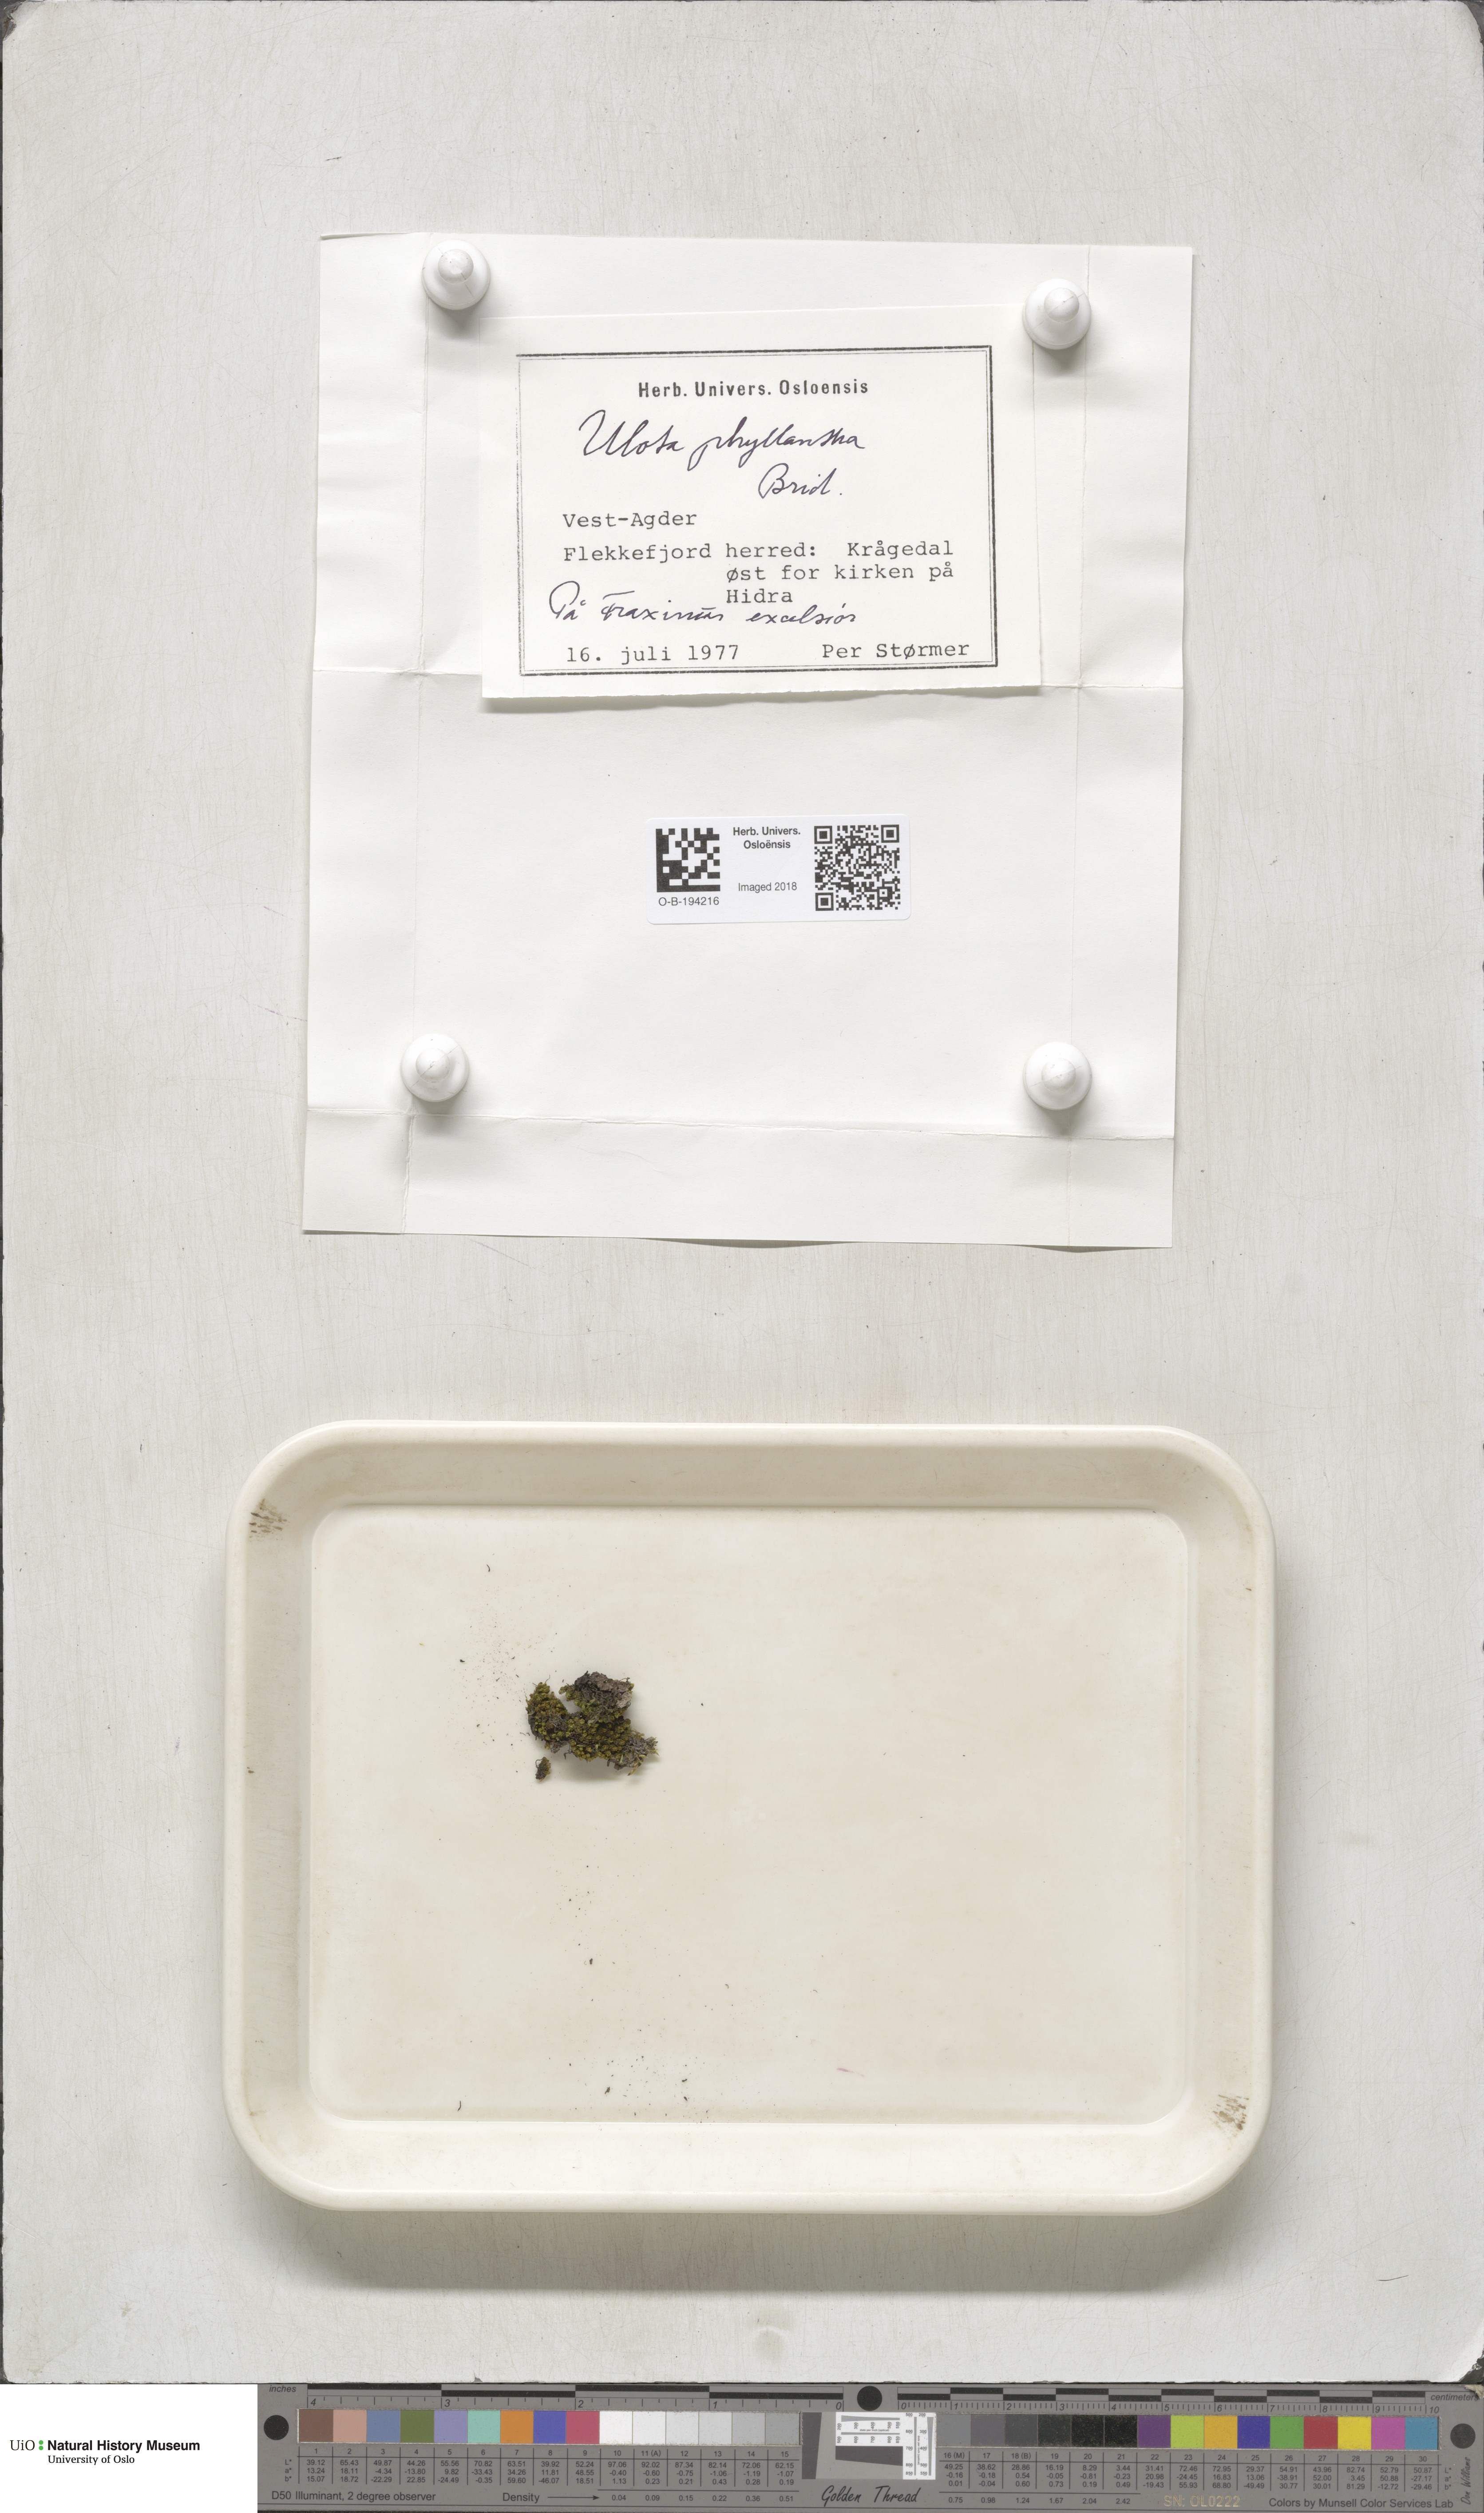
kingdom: Plantae
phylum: Bryophyta
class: Bryopsida
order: Orthotrichales
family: Orthotrichaceae
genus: Plenogemma
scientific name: Plenogemma phyllantha
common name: Frizzled pincushion
